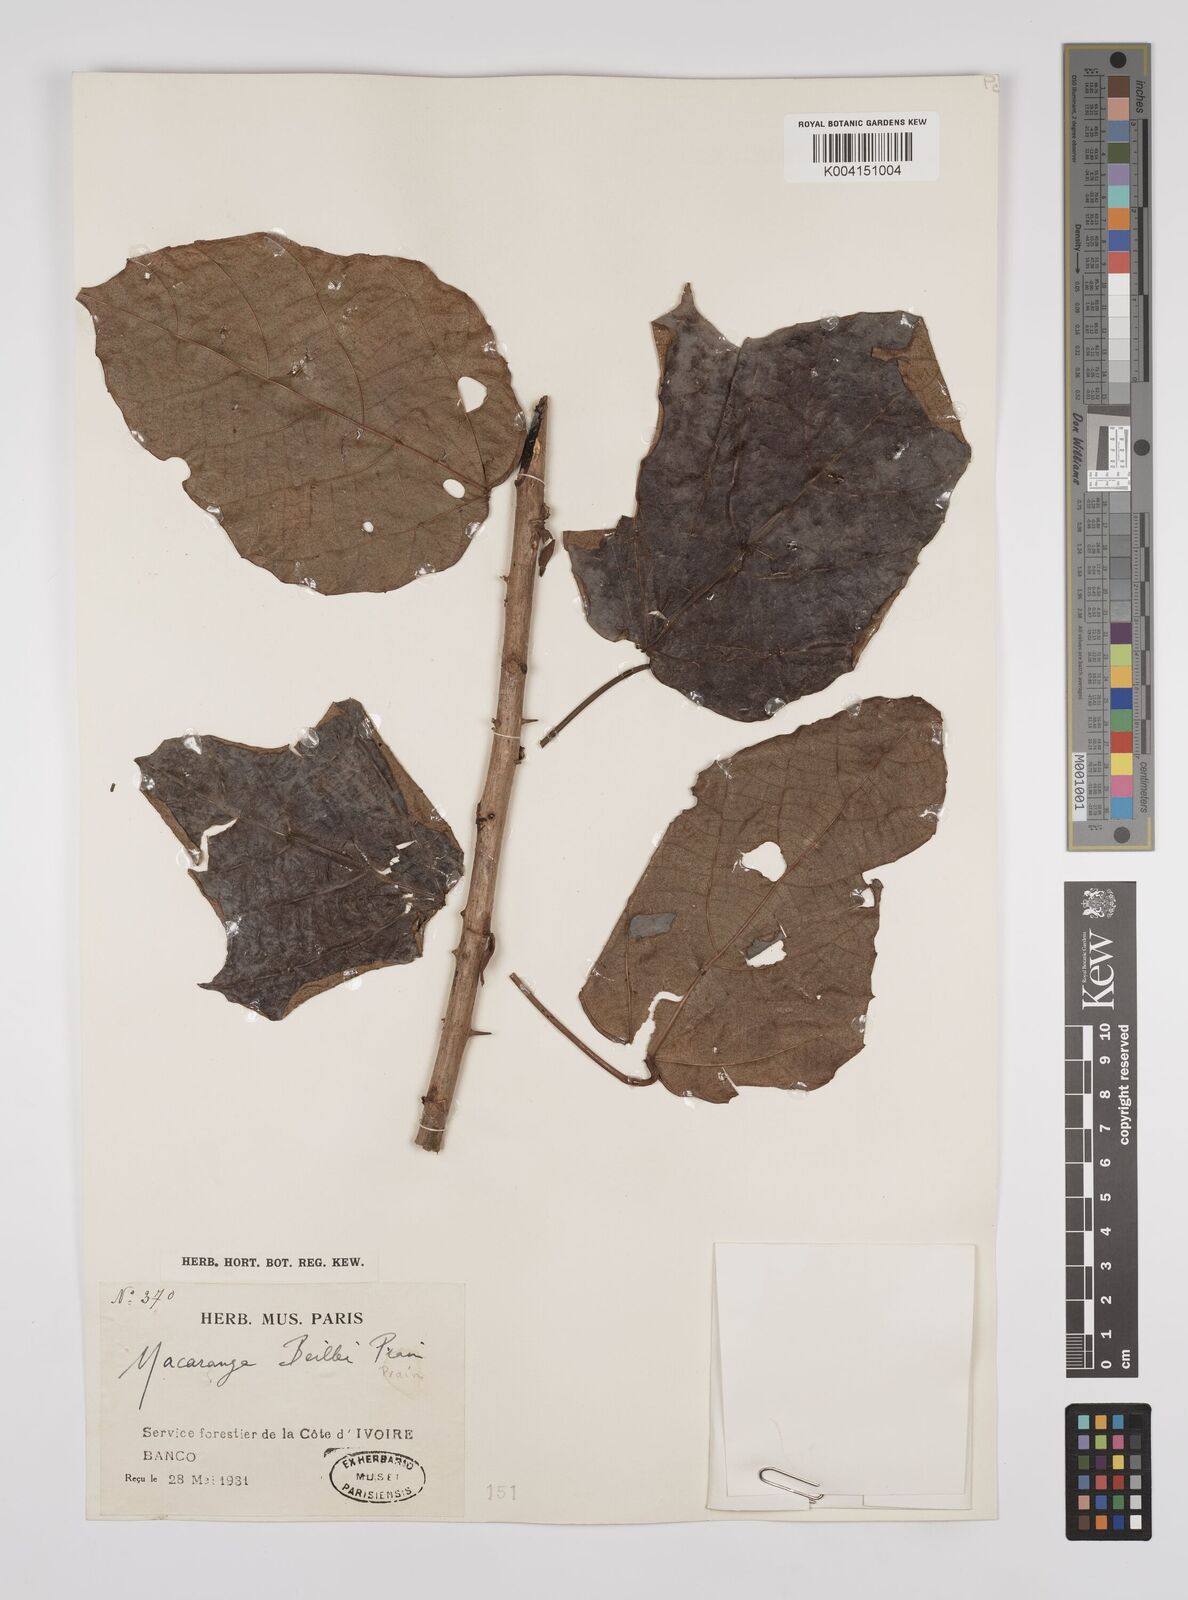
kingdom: Plantae
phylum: Tracheophyta
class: Magnoliopsida
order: Malpighiales
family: Euphorbiaceae
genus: Macaranga
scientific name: Macaranga beillei
